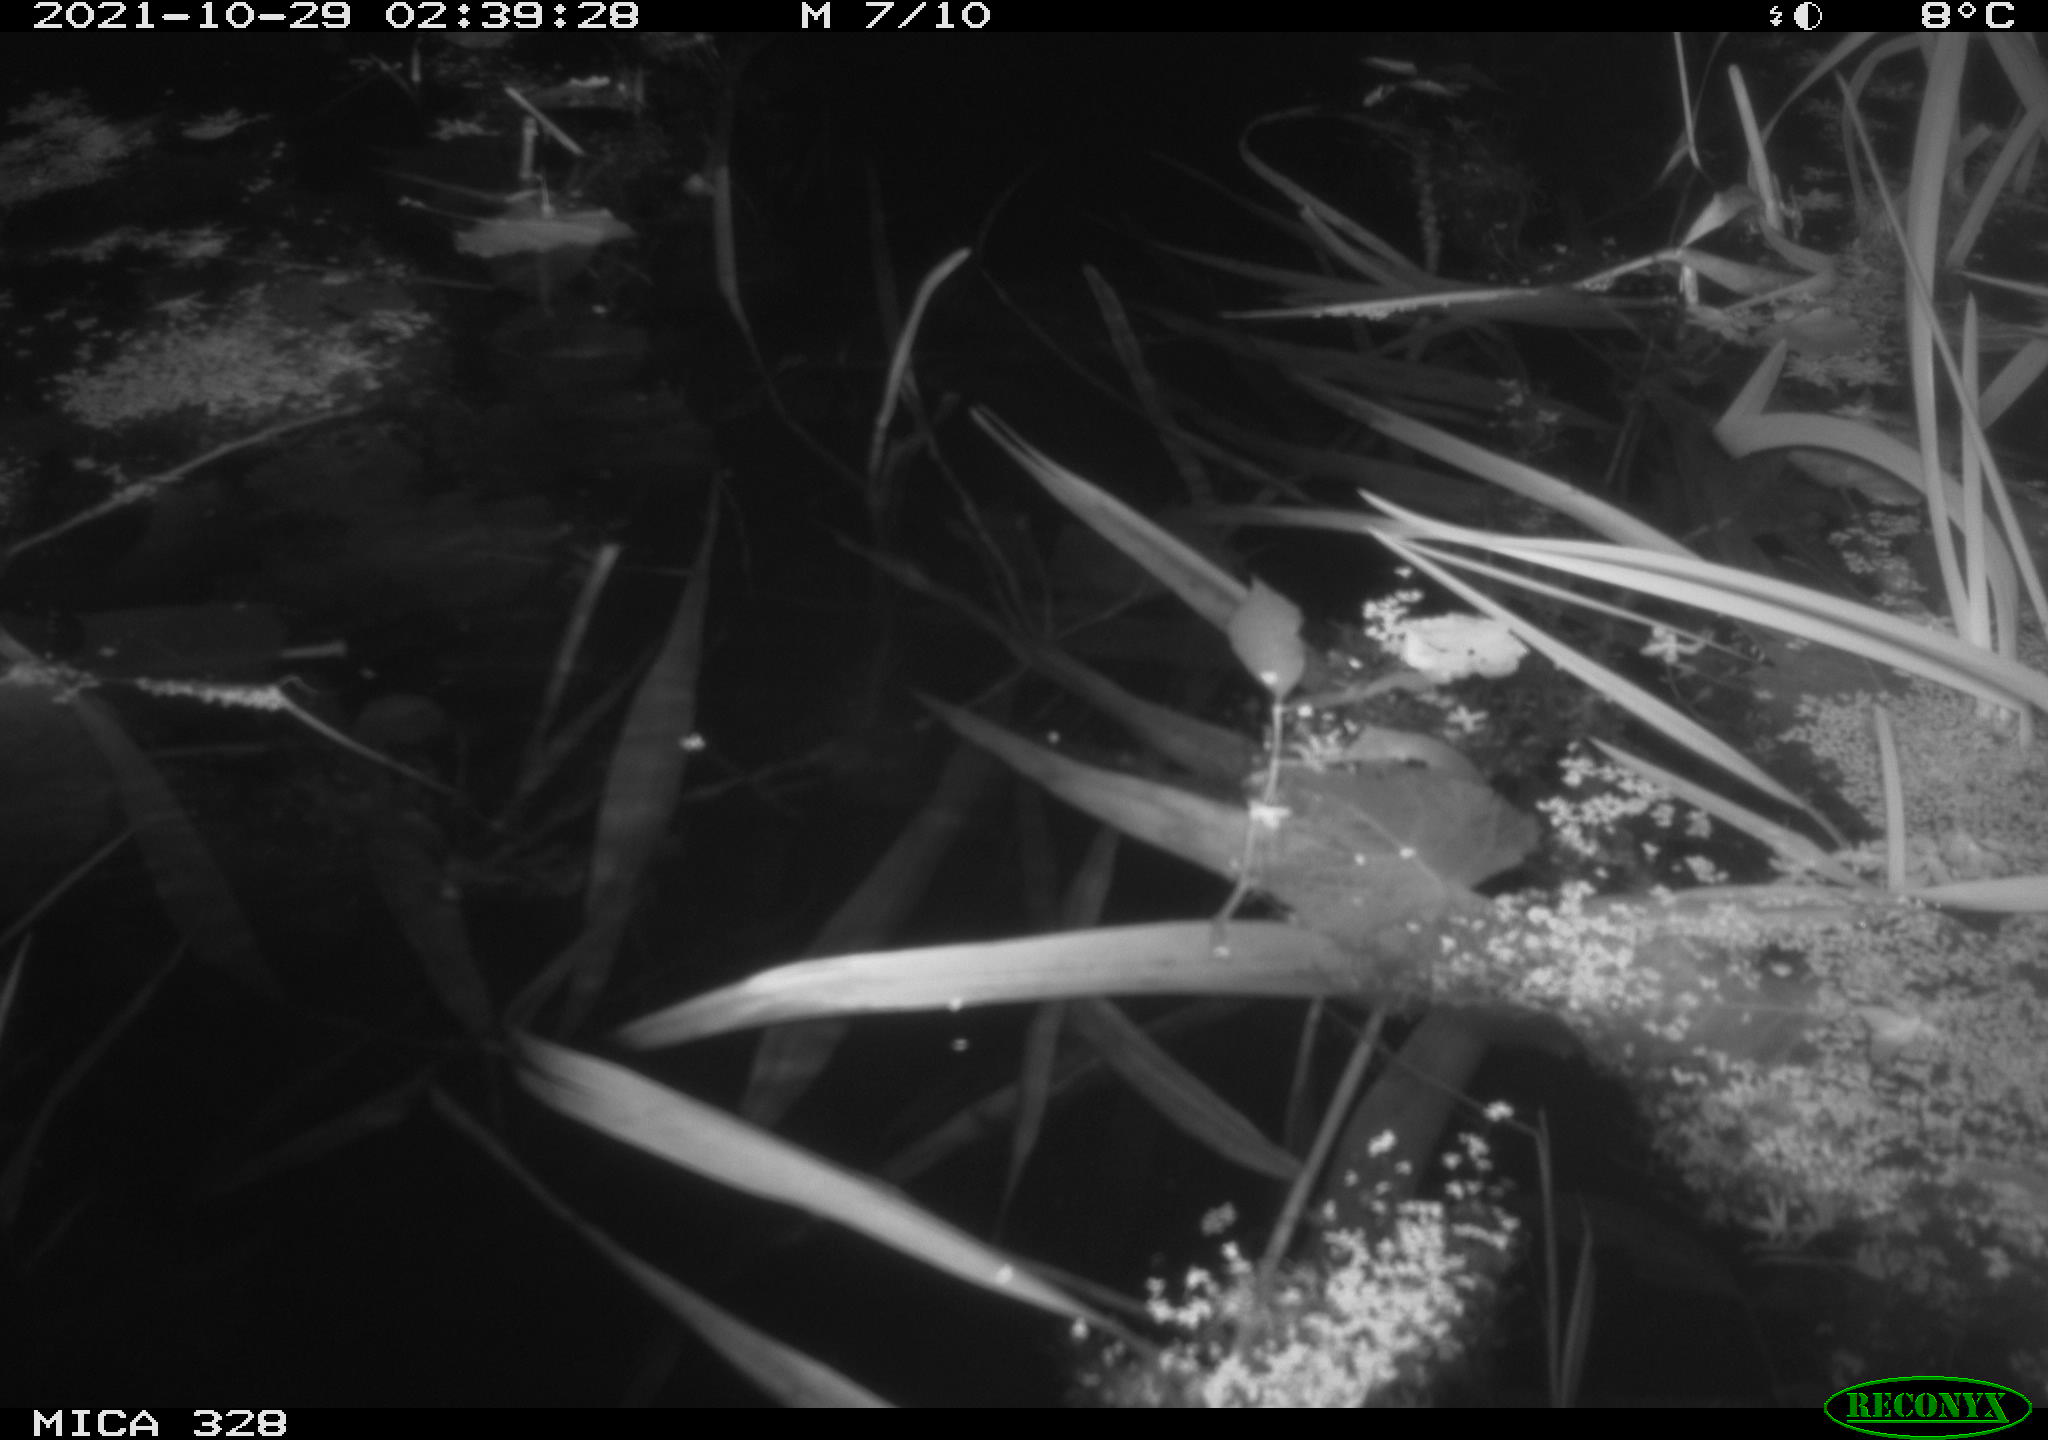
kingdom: Animalia
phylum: Chordata
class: Mammalia
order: Rodentia
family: Cricetidae
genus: Ondatra
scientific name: Ondatra zibethicus
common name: Muskrat
